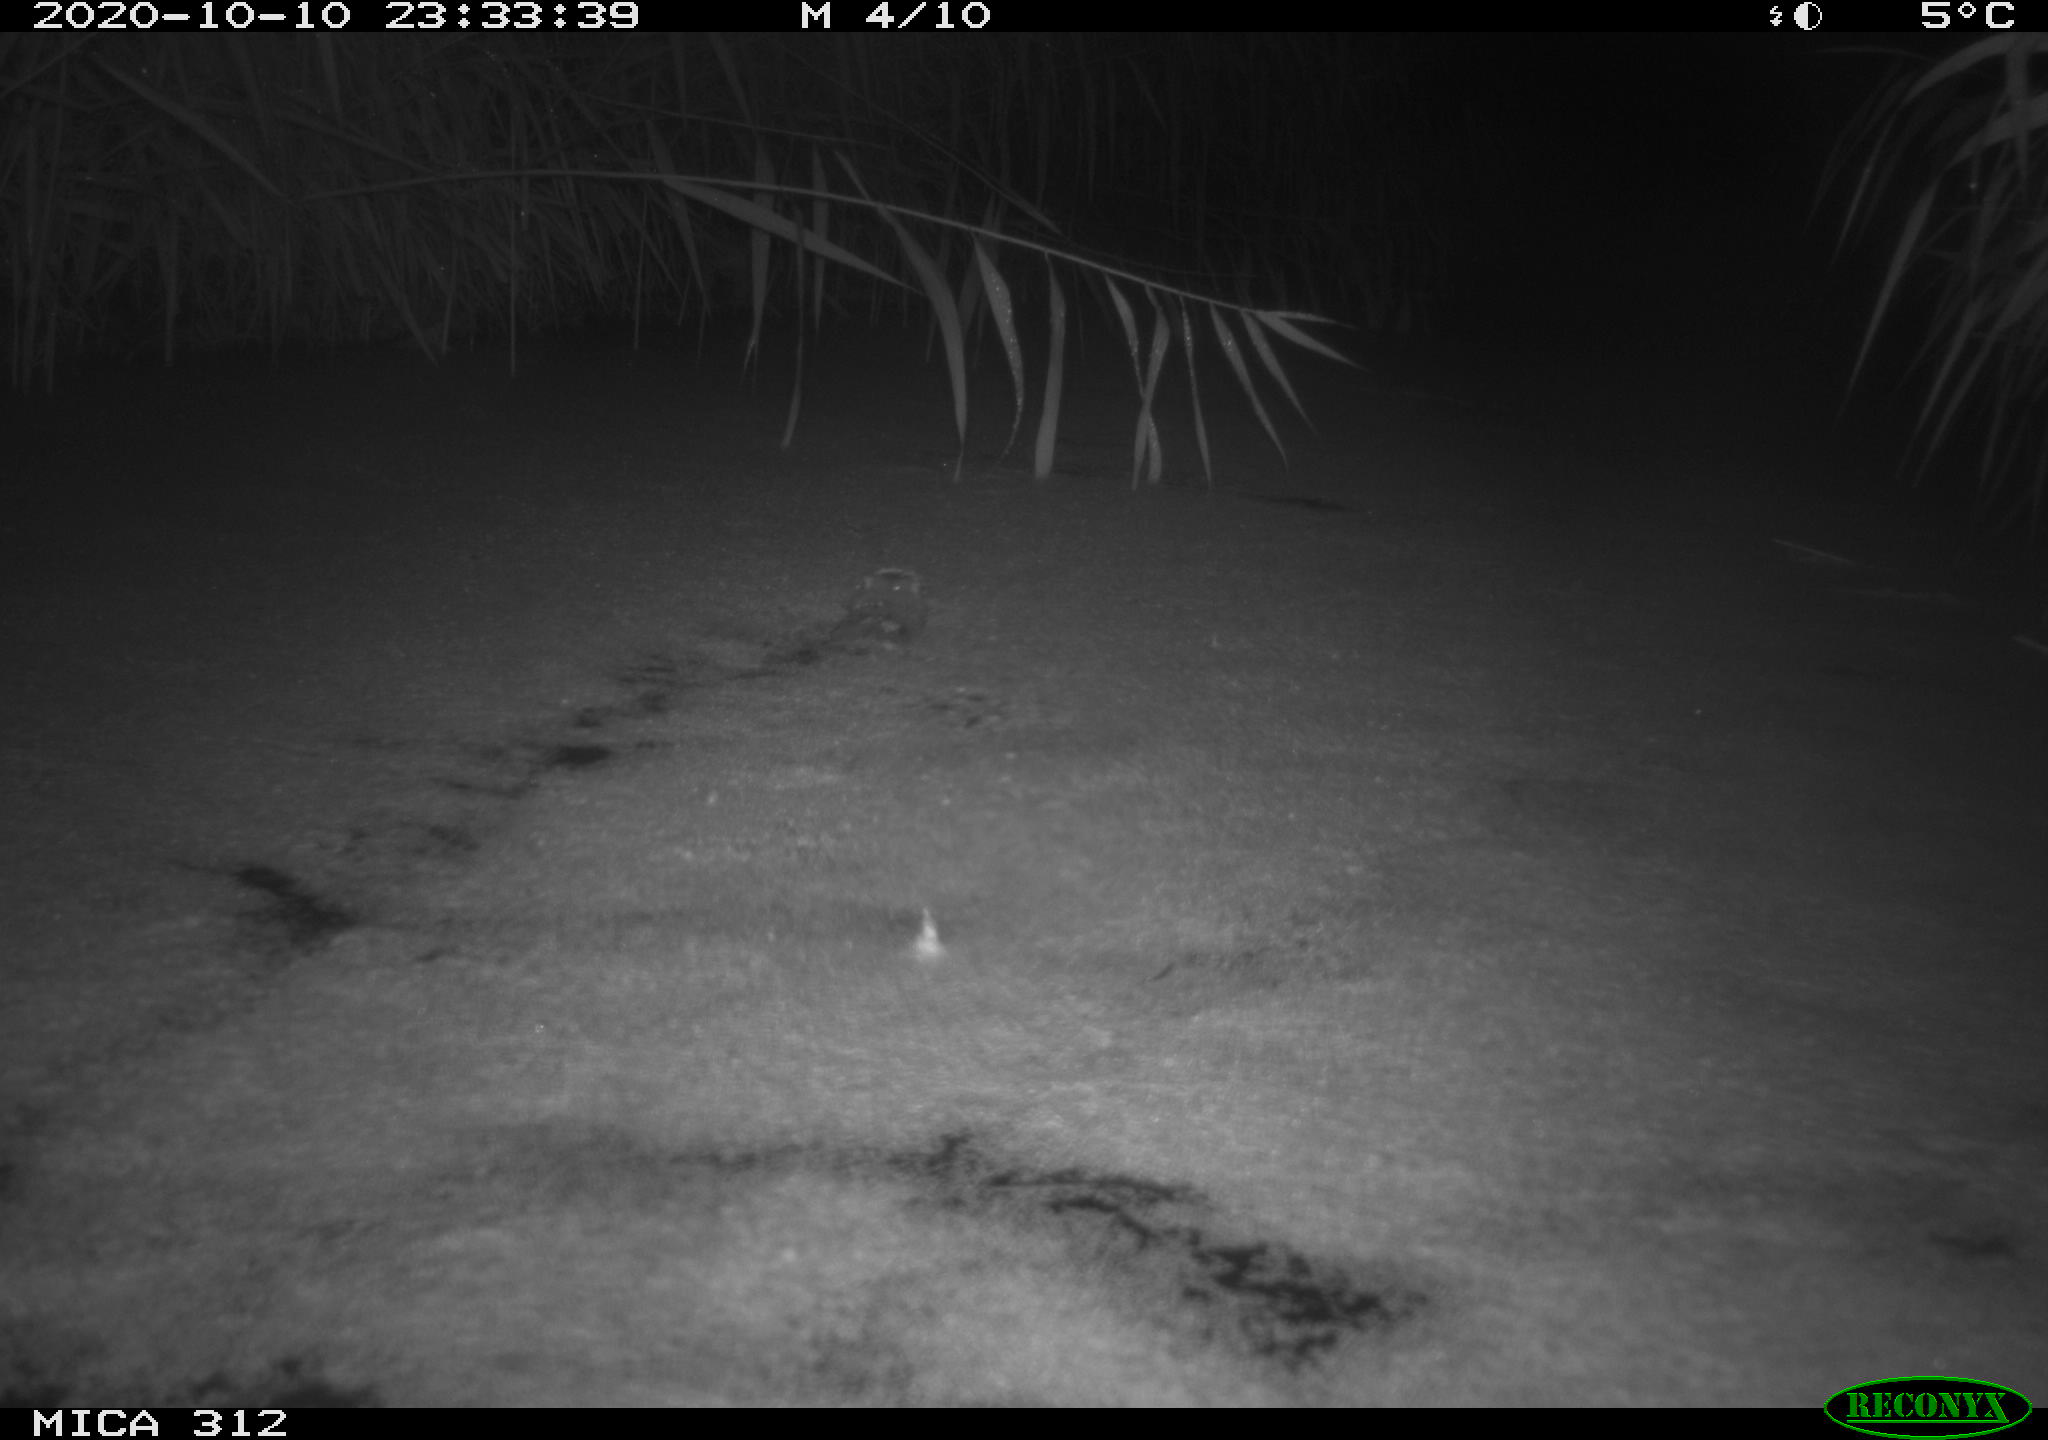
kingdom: Animalia
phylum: Chordata
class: Mammalia
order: Rodentia
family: Muridae
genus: Rattus
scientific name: Rattus norvegicus
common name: Brown rat
